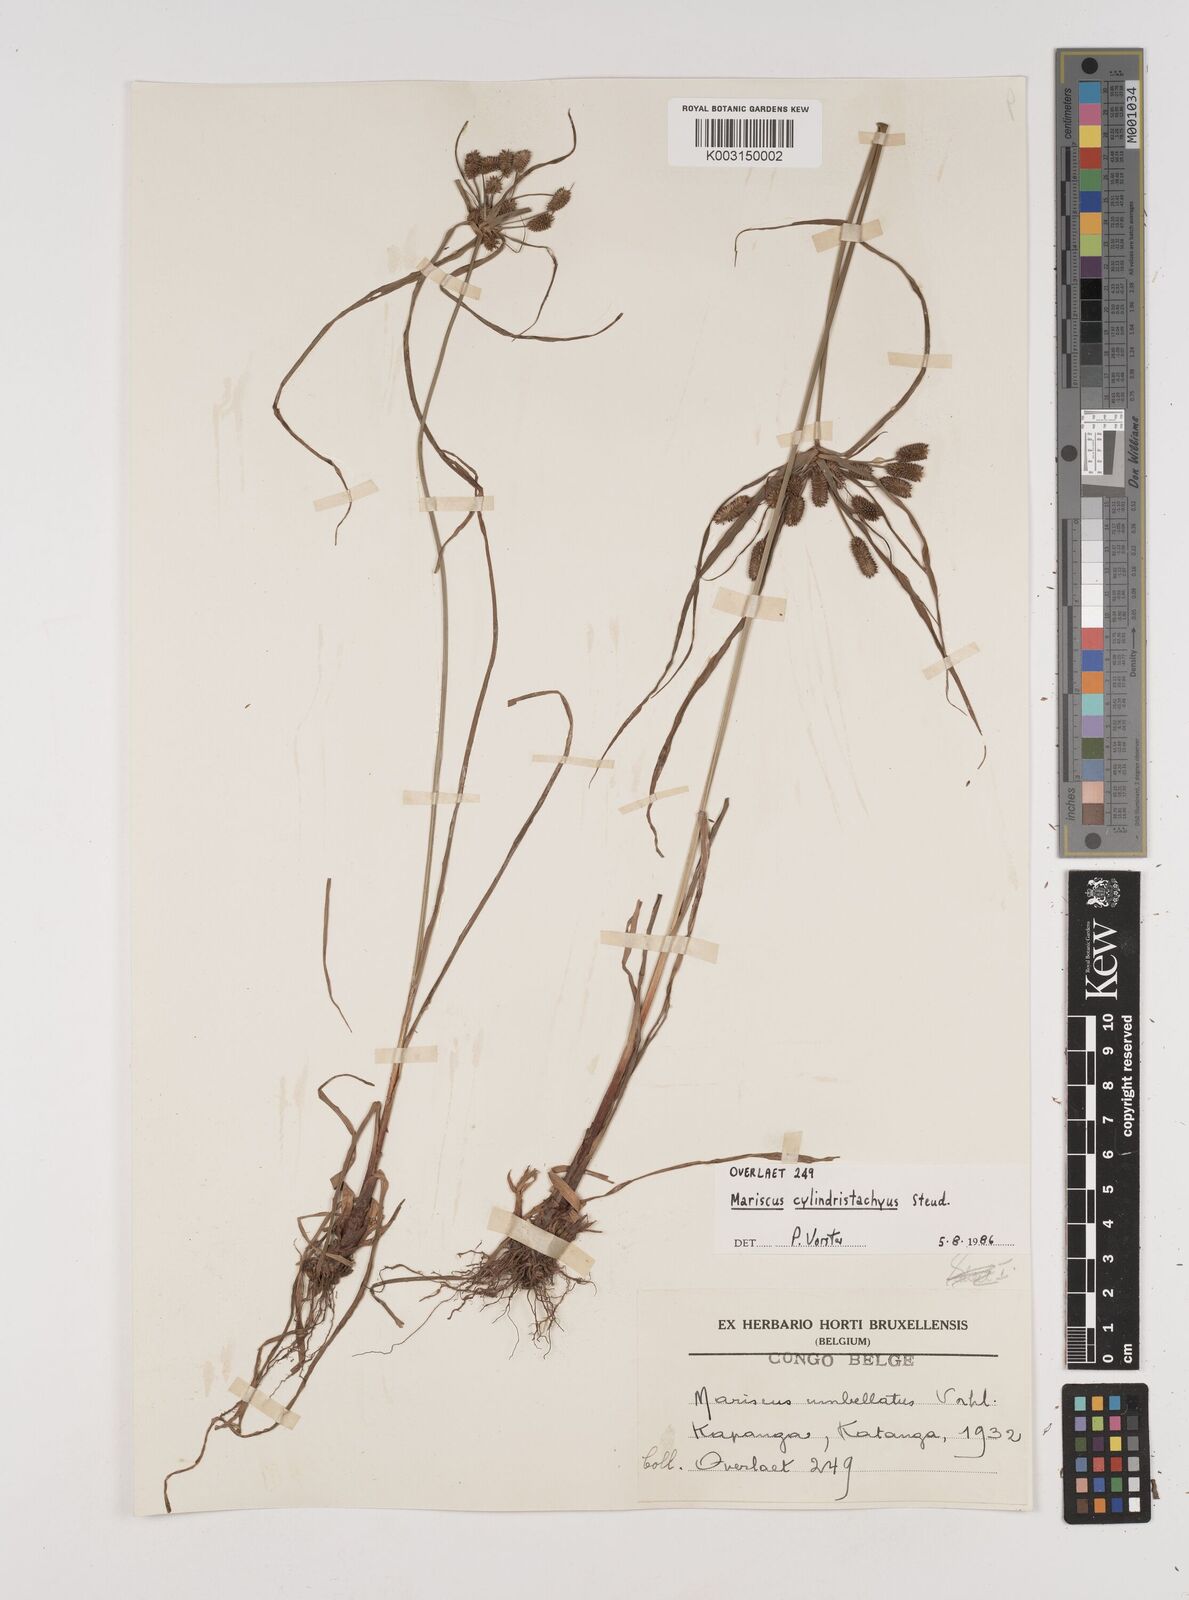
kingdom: Plantae
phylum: Tracheophyta
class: Liliopsida
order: Poales
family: Cyperaceae
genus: Cyperus
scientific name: Cyperus cyperoides
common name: Pacific island flat sedge
